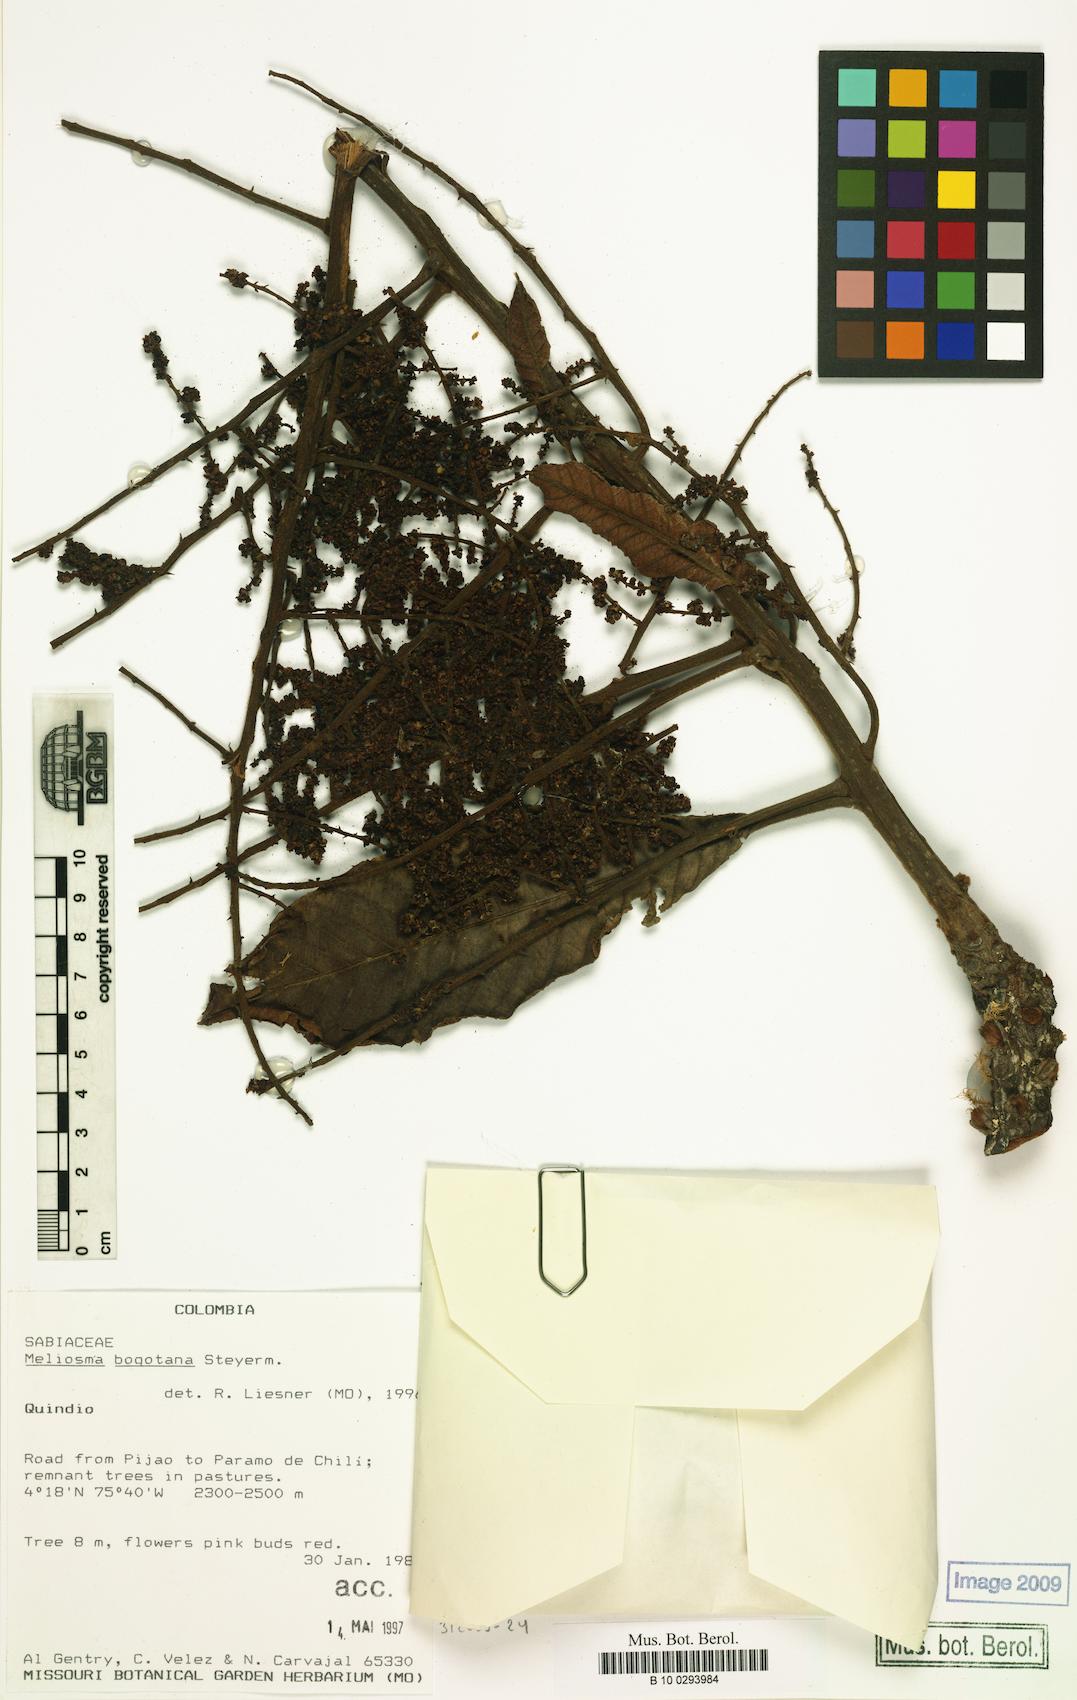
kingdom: Plantae
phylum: Tracheophyta
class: Magnoliopsida
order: Proteales
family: Sabiaceae
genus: Meliosma
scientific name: Meliosma bogotana
